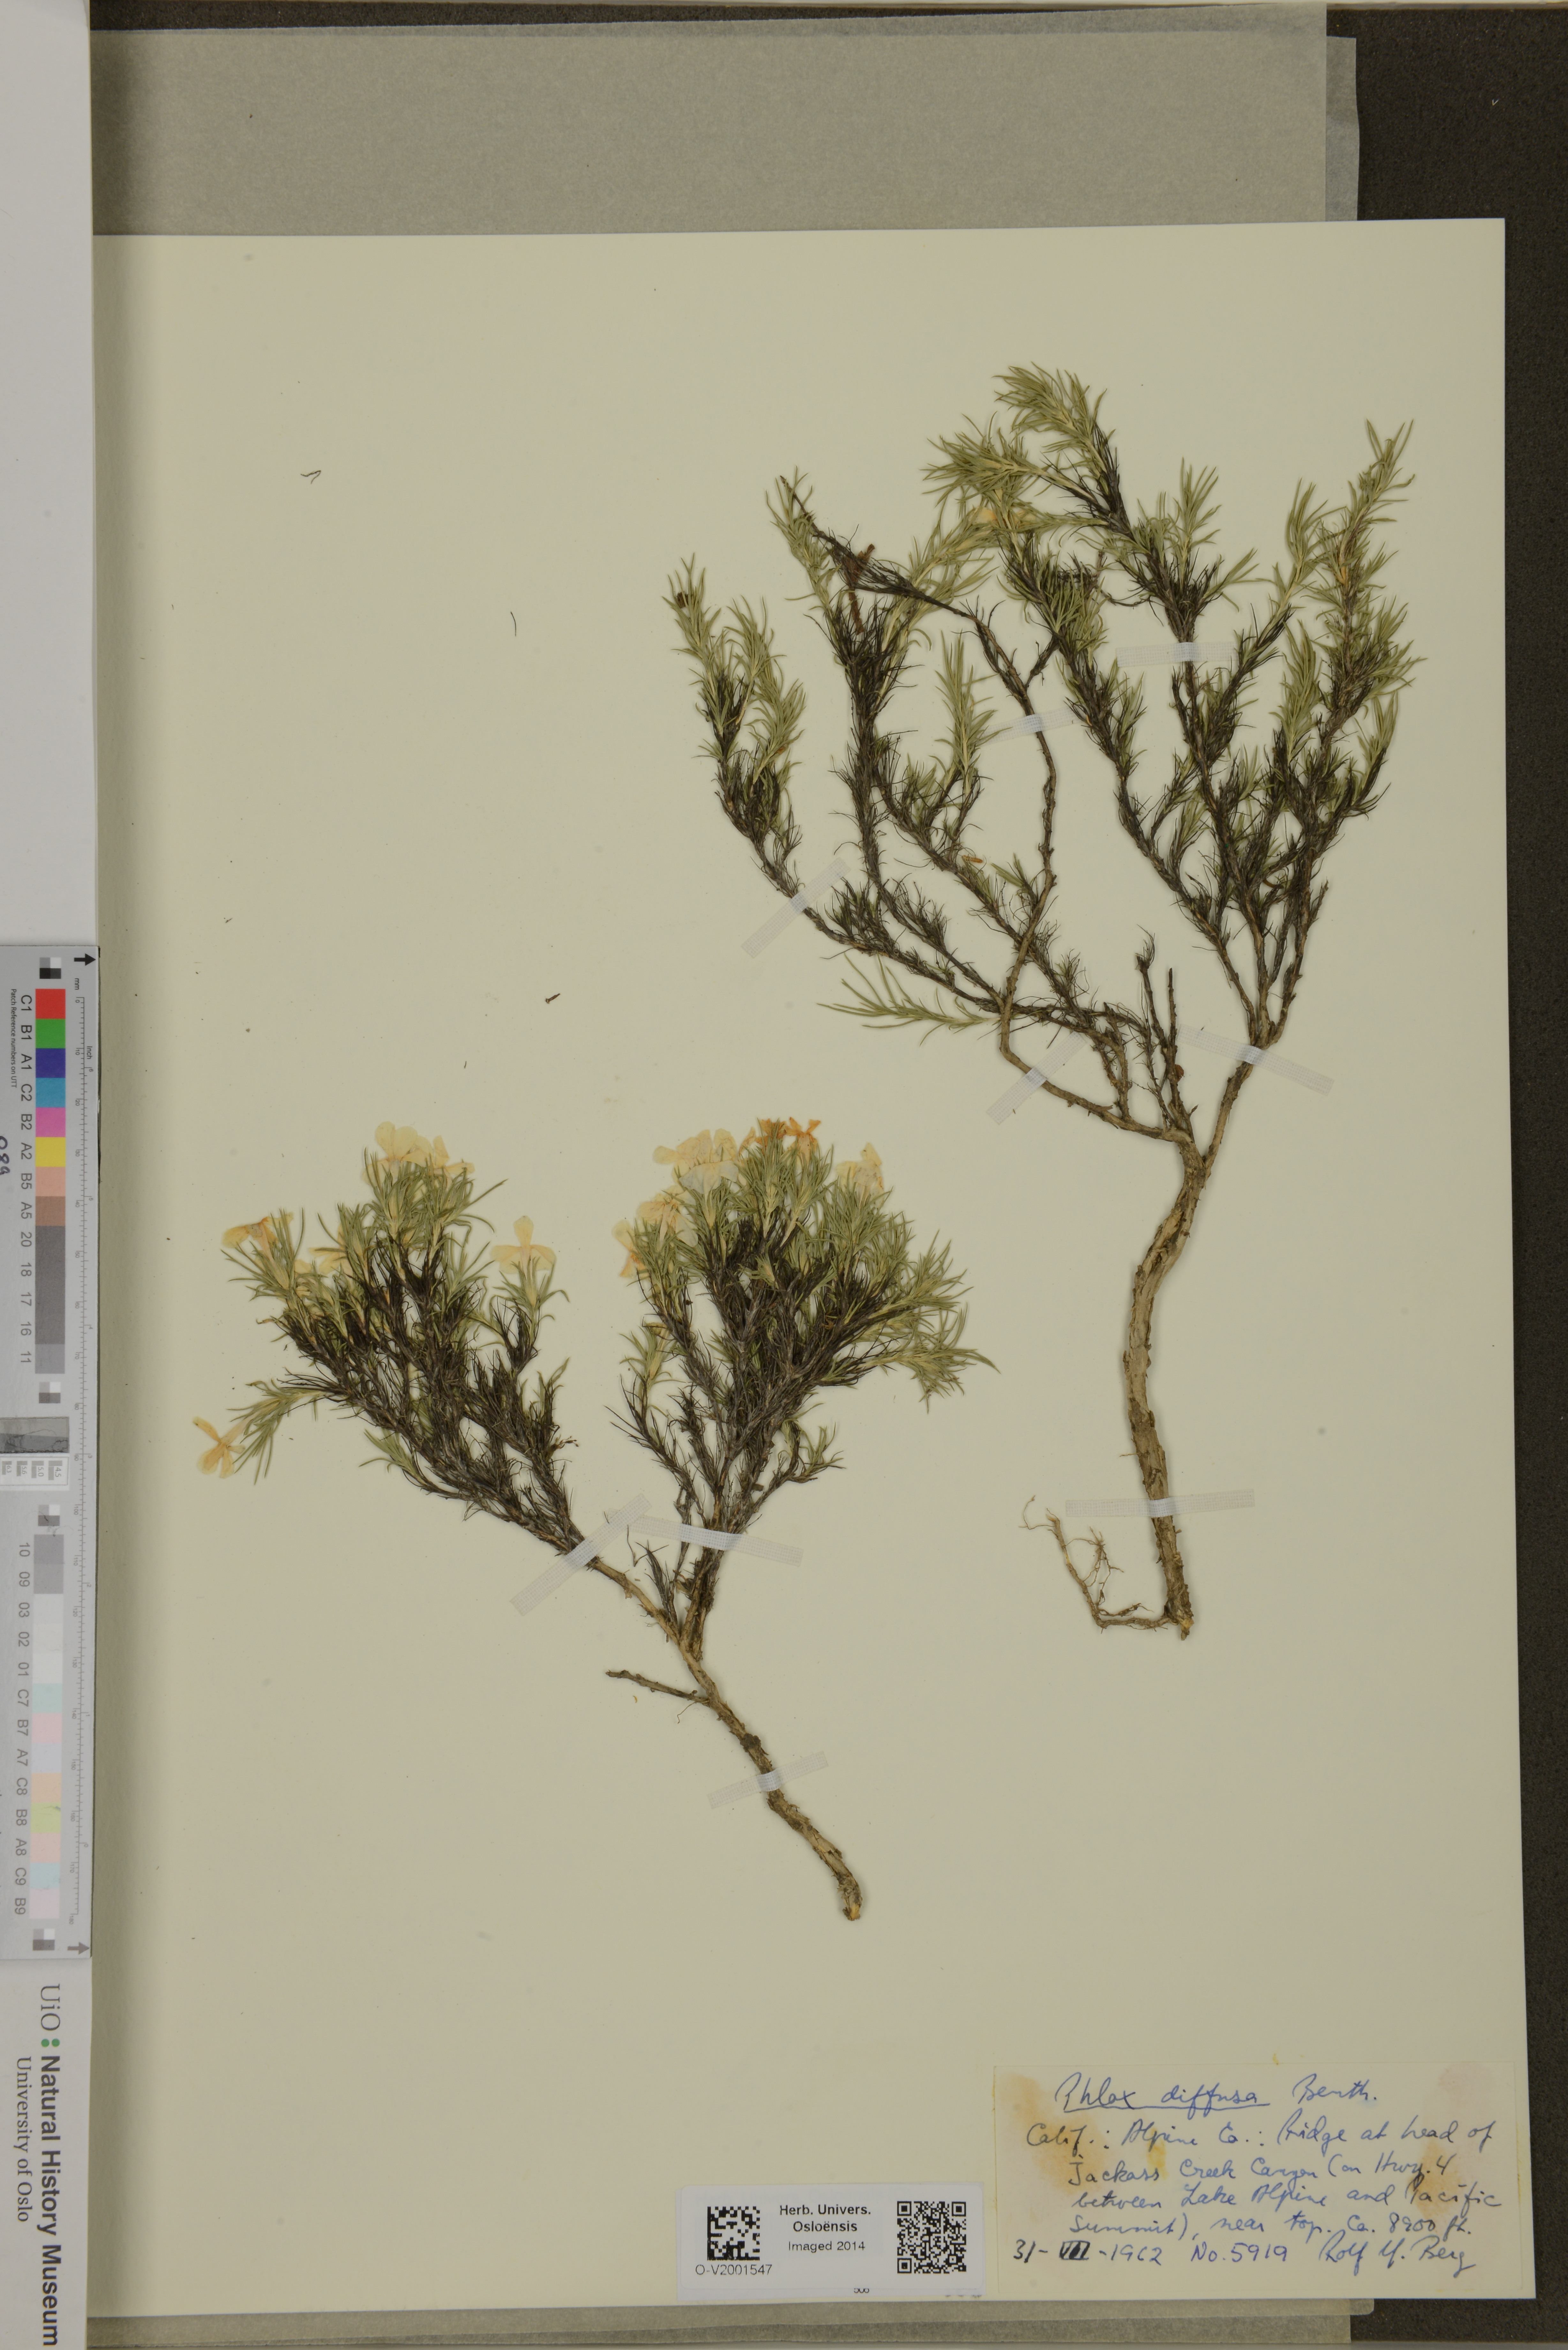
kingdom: Plantae
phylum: Tracheophyta
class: Magnoliopsida
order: Ericales
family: Polemoniaceae
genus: Phlox
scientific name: Phlox diffusa
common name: Mat phlox
